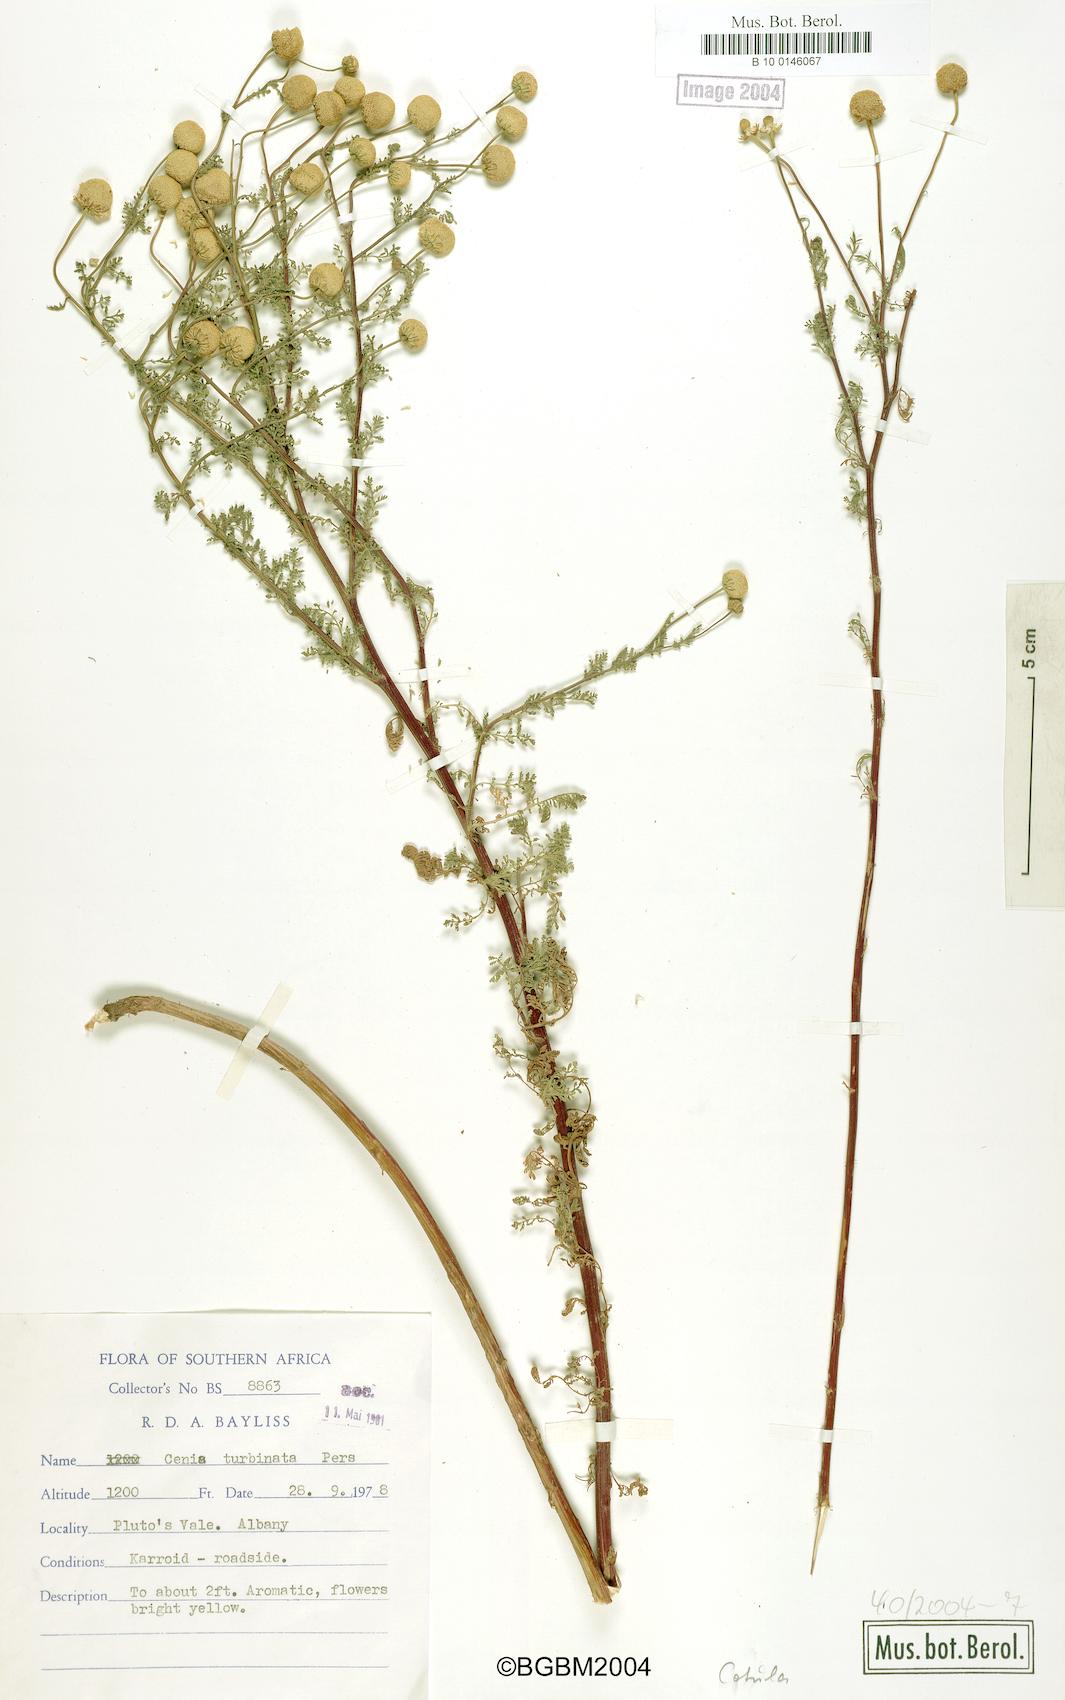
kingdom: Plantae
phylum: Tracheophyta
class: Magnoliopsida
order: Asterales
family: Asteraceae
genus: Cotula
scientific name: Cotula
